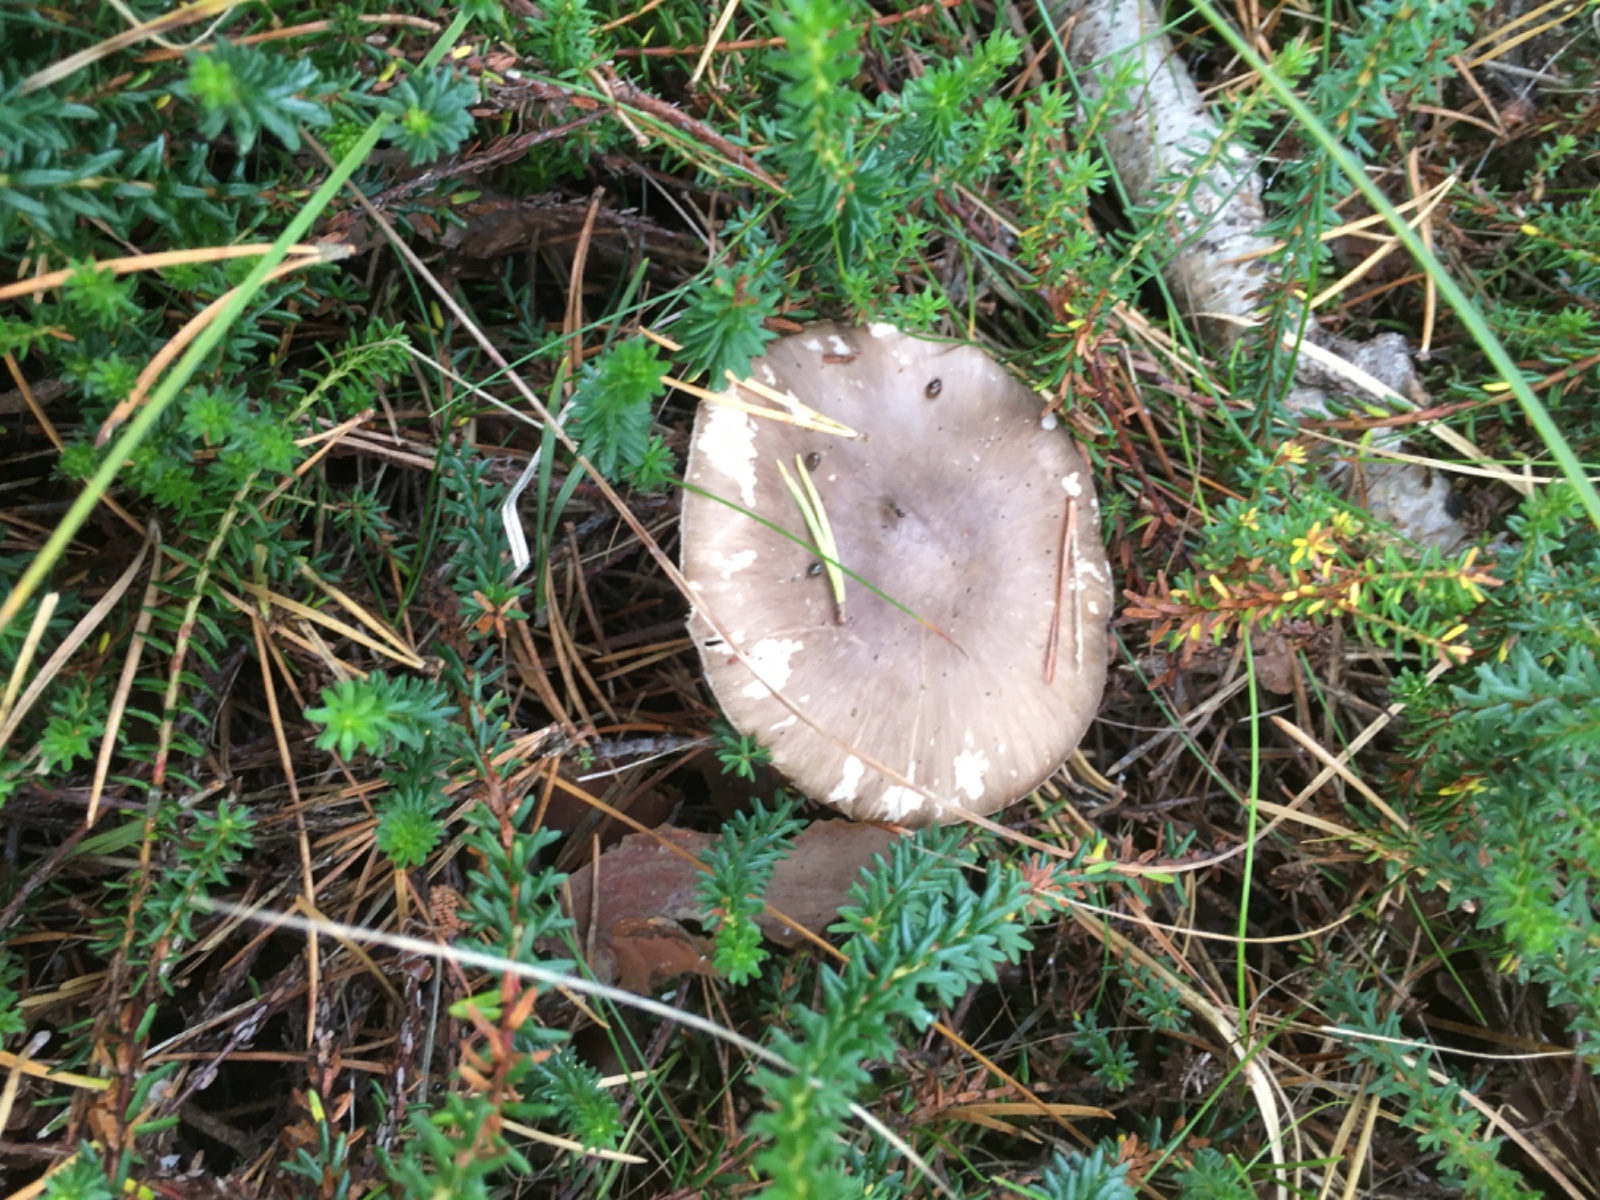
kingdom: Fungi
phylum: Basidiomycota
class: Agaricomycetes
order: Agaricales
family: Amanitaceae
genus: Amanita
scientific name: Amanita porphyria
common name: porfyr-fluesvamp
